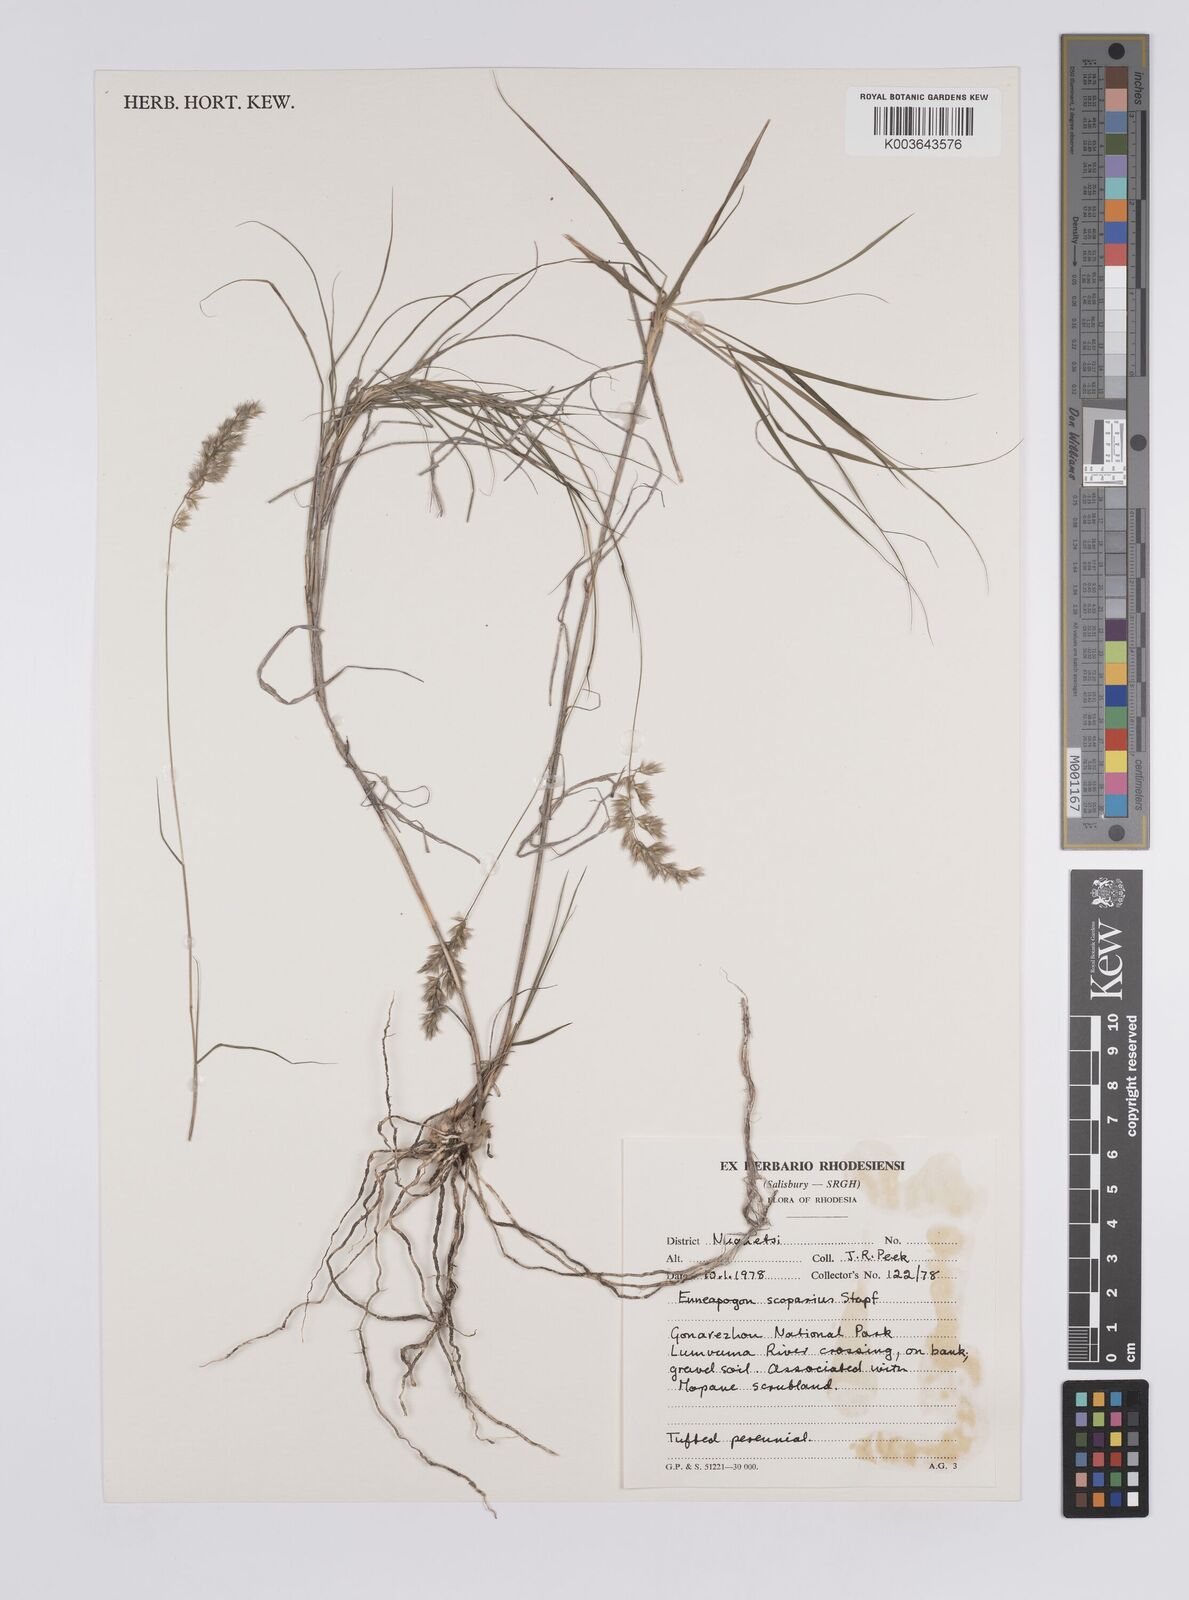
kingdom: Plantae
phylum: Tracheophyta
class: Liliopsida
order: Poales
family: Poaceae
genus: Enneapogon
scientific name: Enneapogon scoparius
